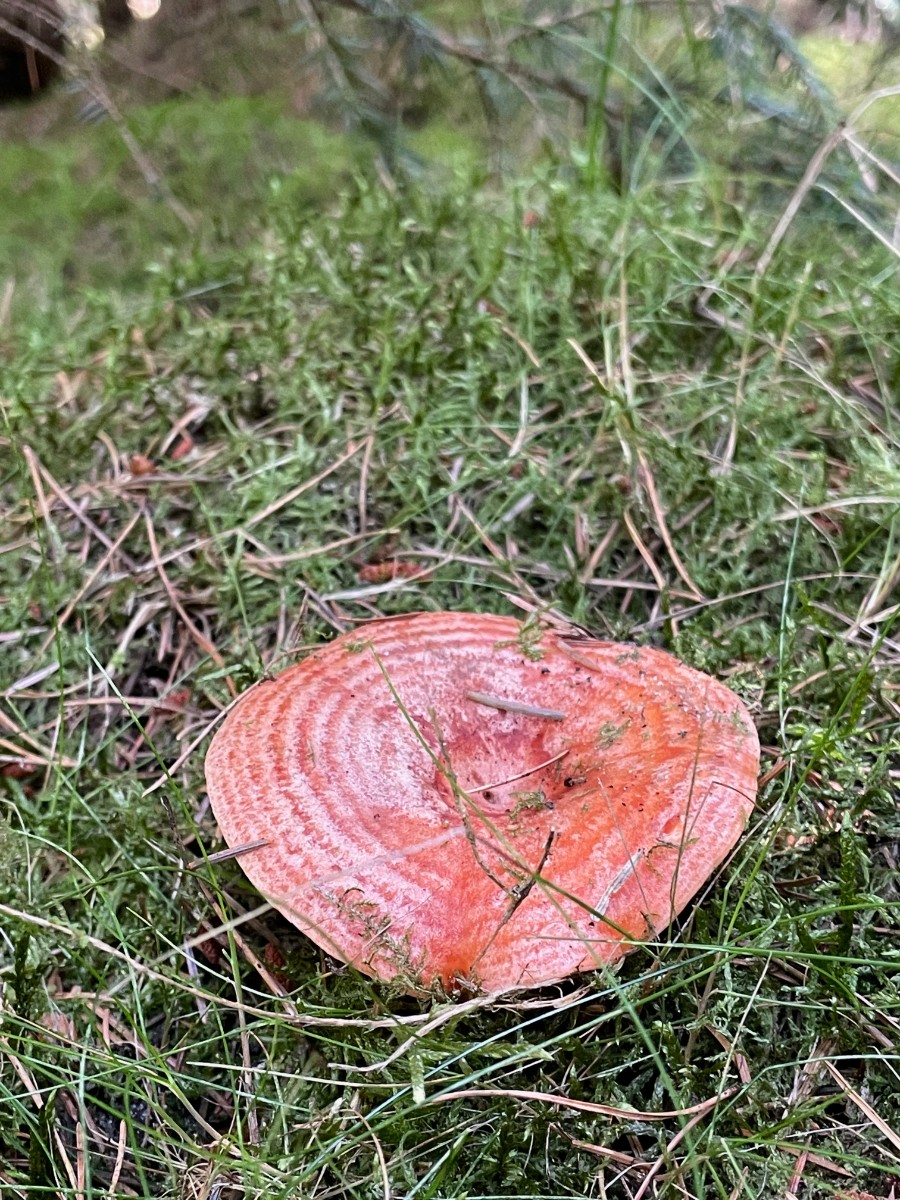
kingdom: Fungi
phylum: Basidiomycota
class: Agaricomycetes
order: Russulales
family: Russulaceae
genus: Lactarius
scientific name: Lactarius deliciosus
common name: velsmagende mælkehat
